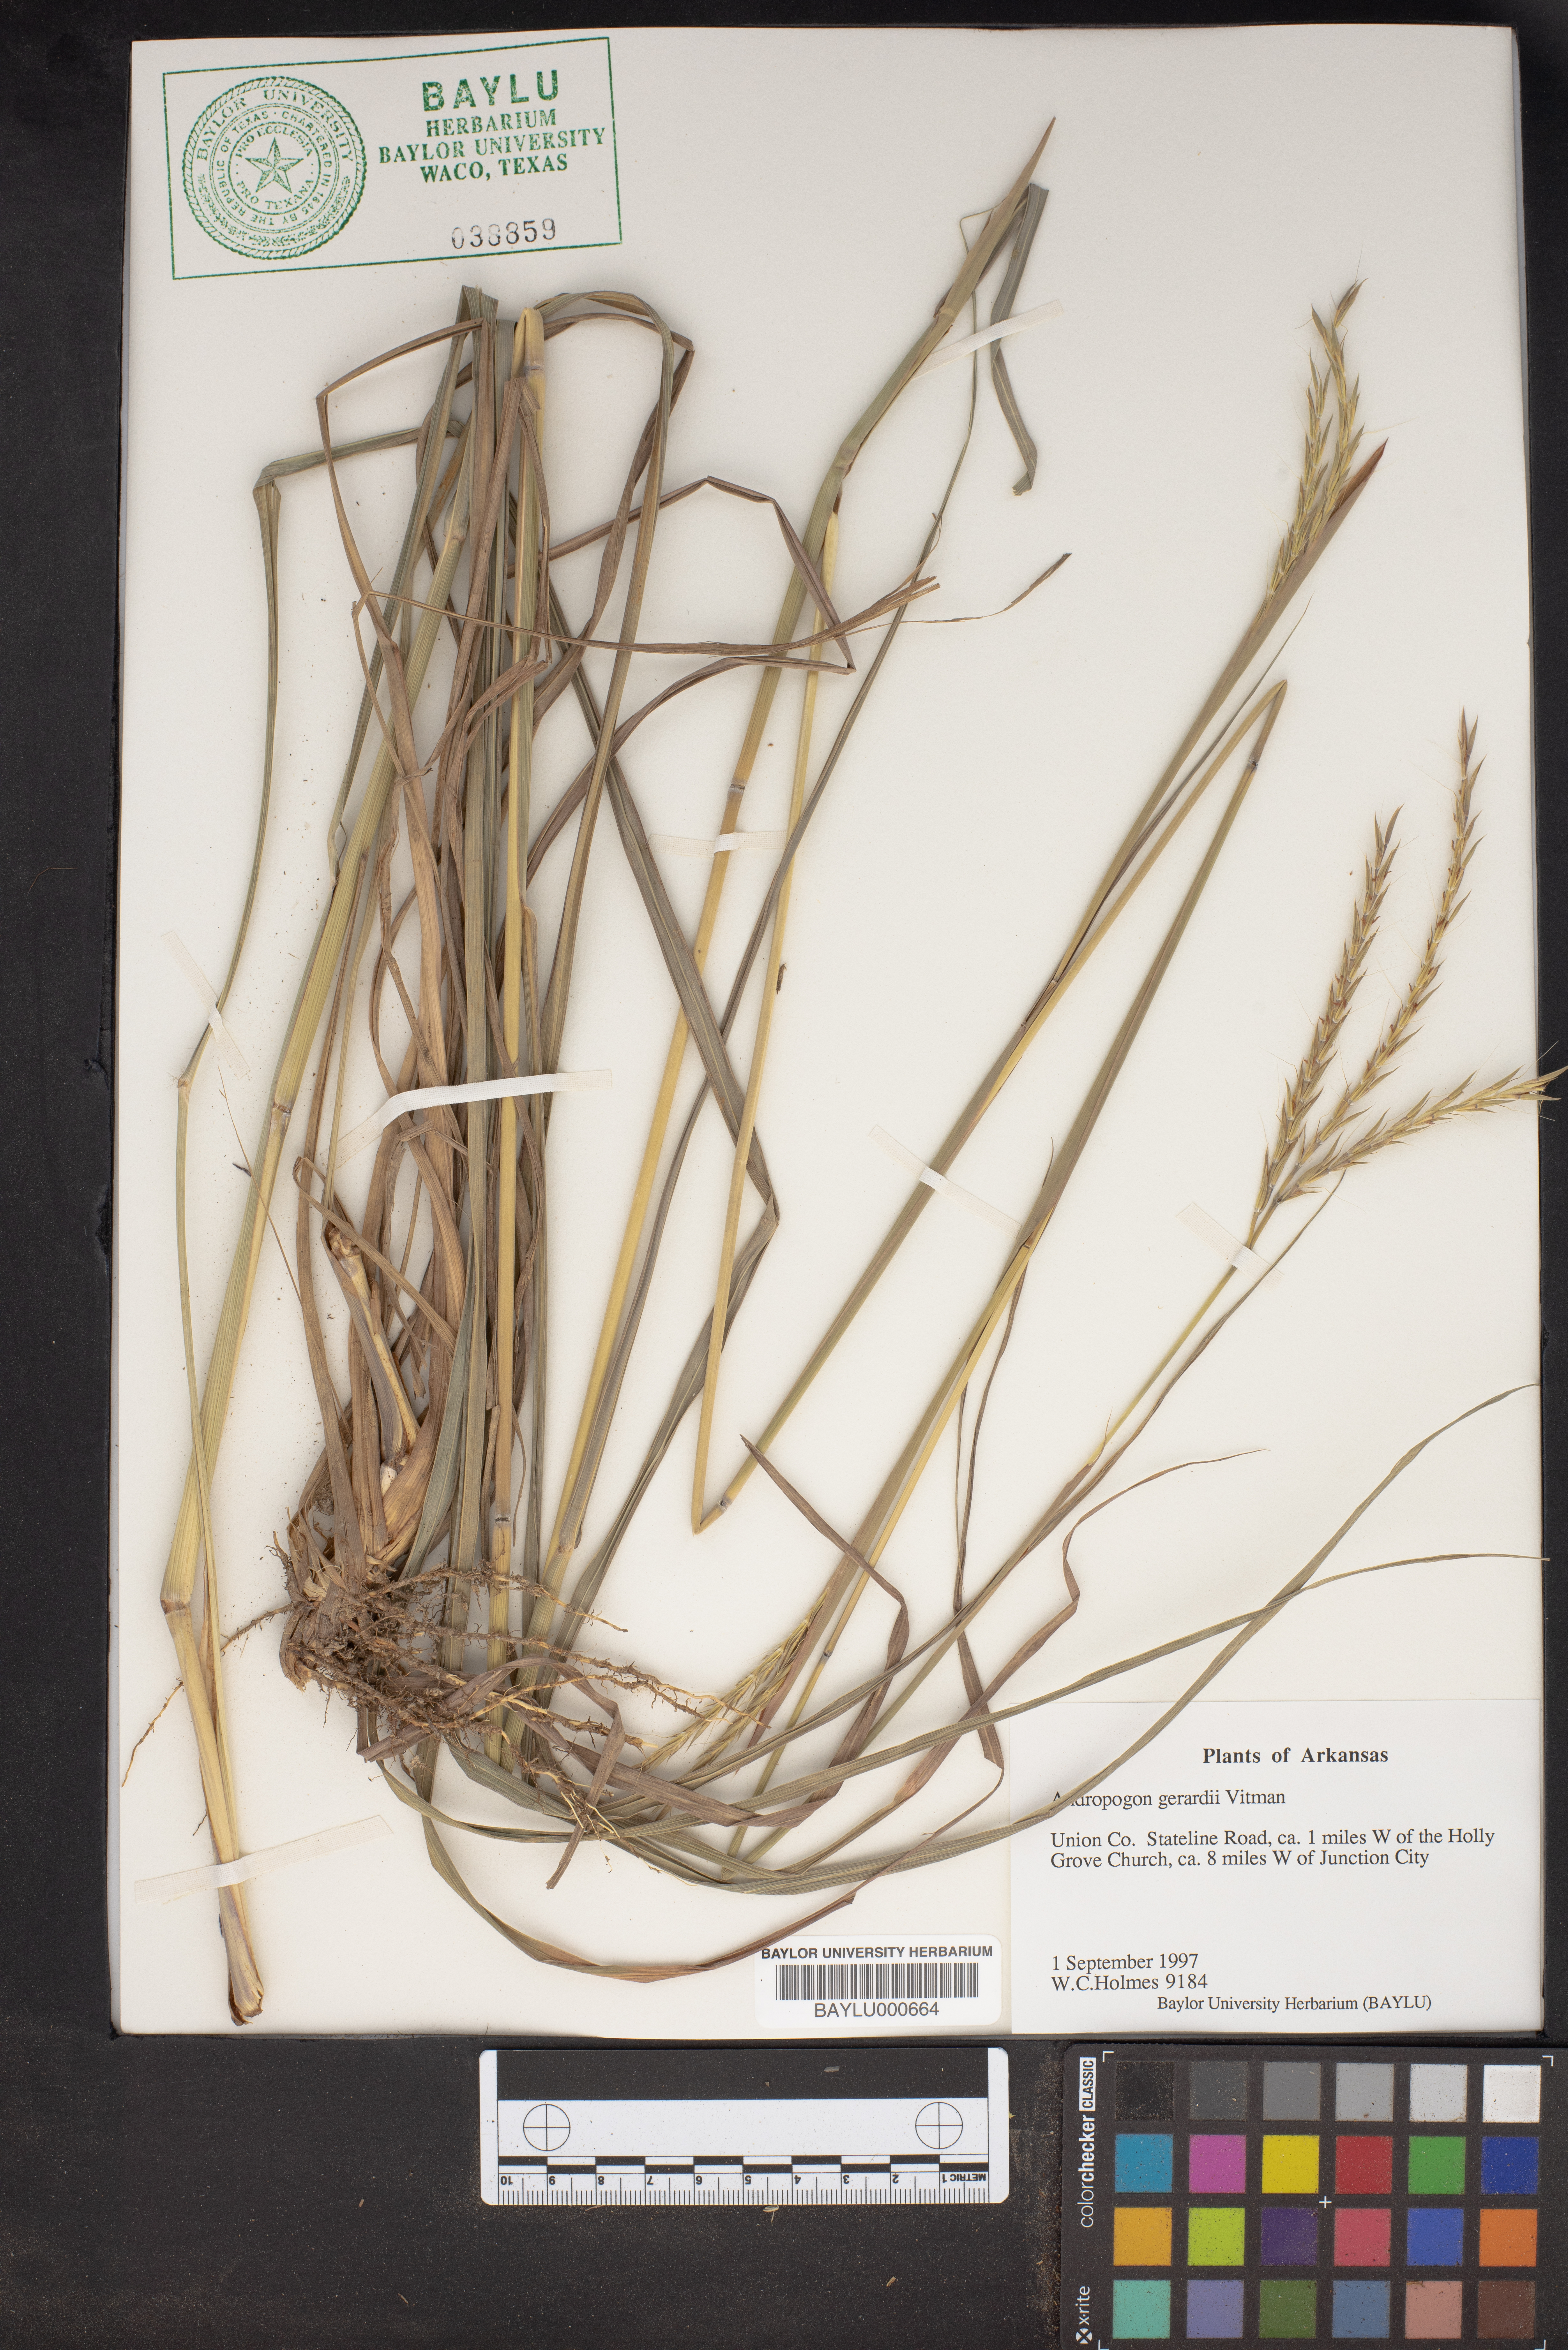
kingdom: Plantae
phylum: Tracheophyta
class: Liliopsida
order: Poales
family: Poaceae
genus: Andropogon
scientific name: Andropogon gerardi
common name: Big bluestem
